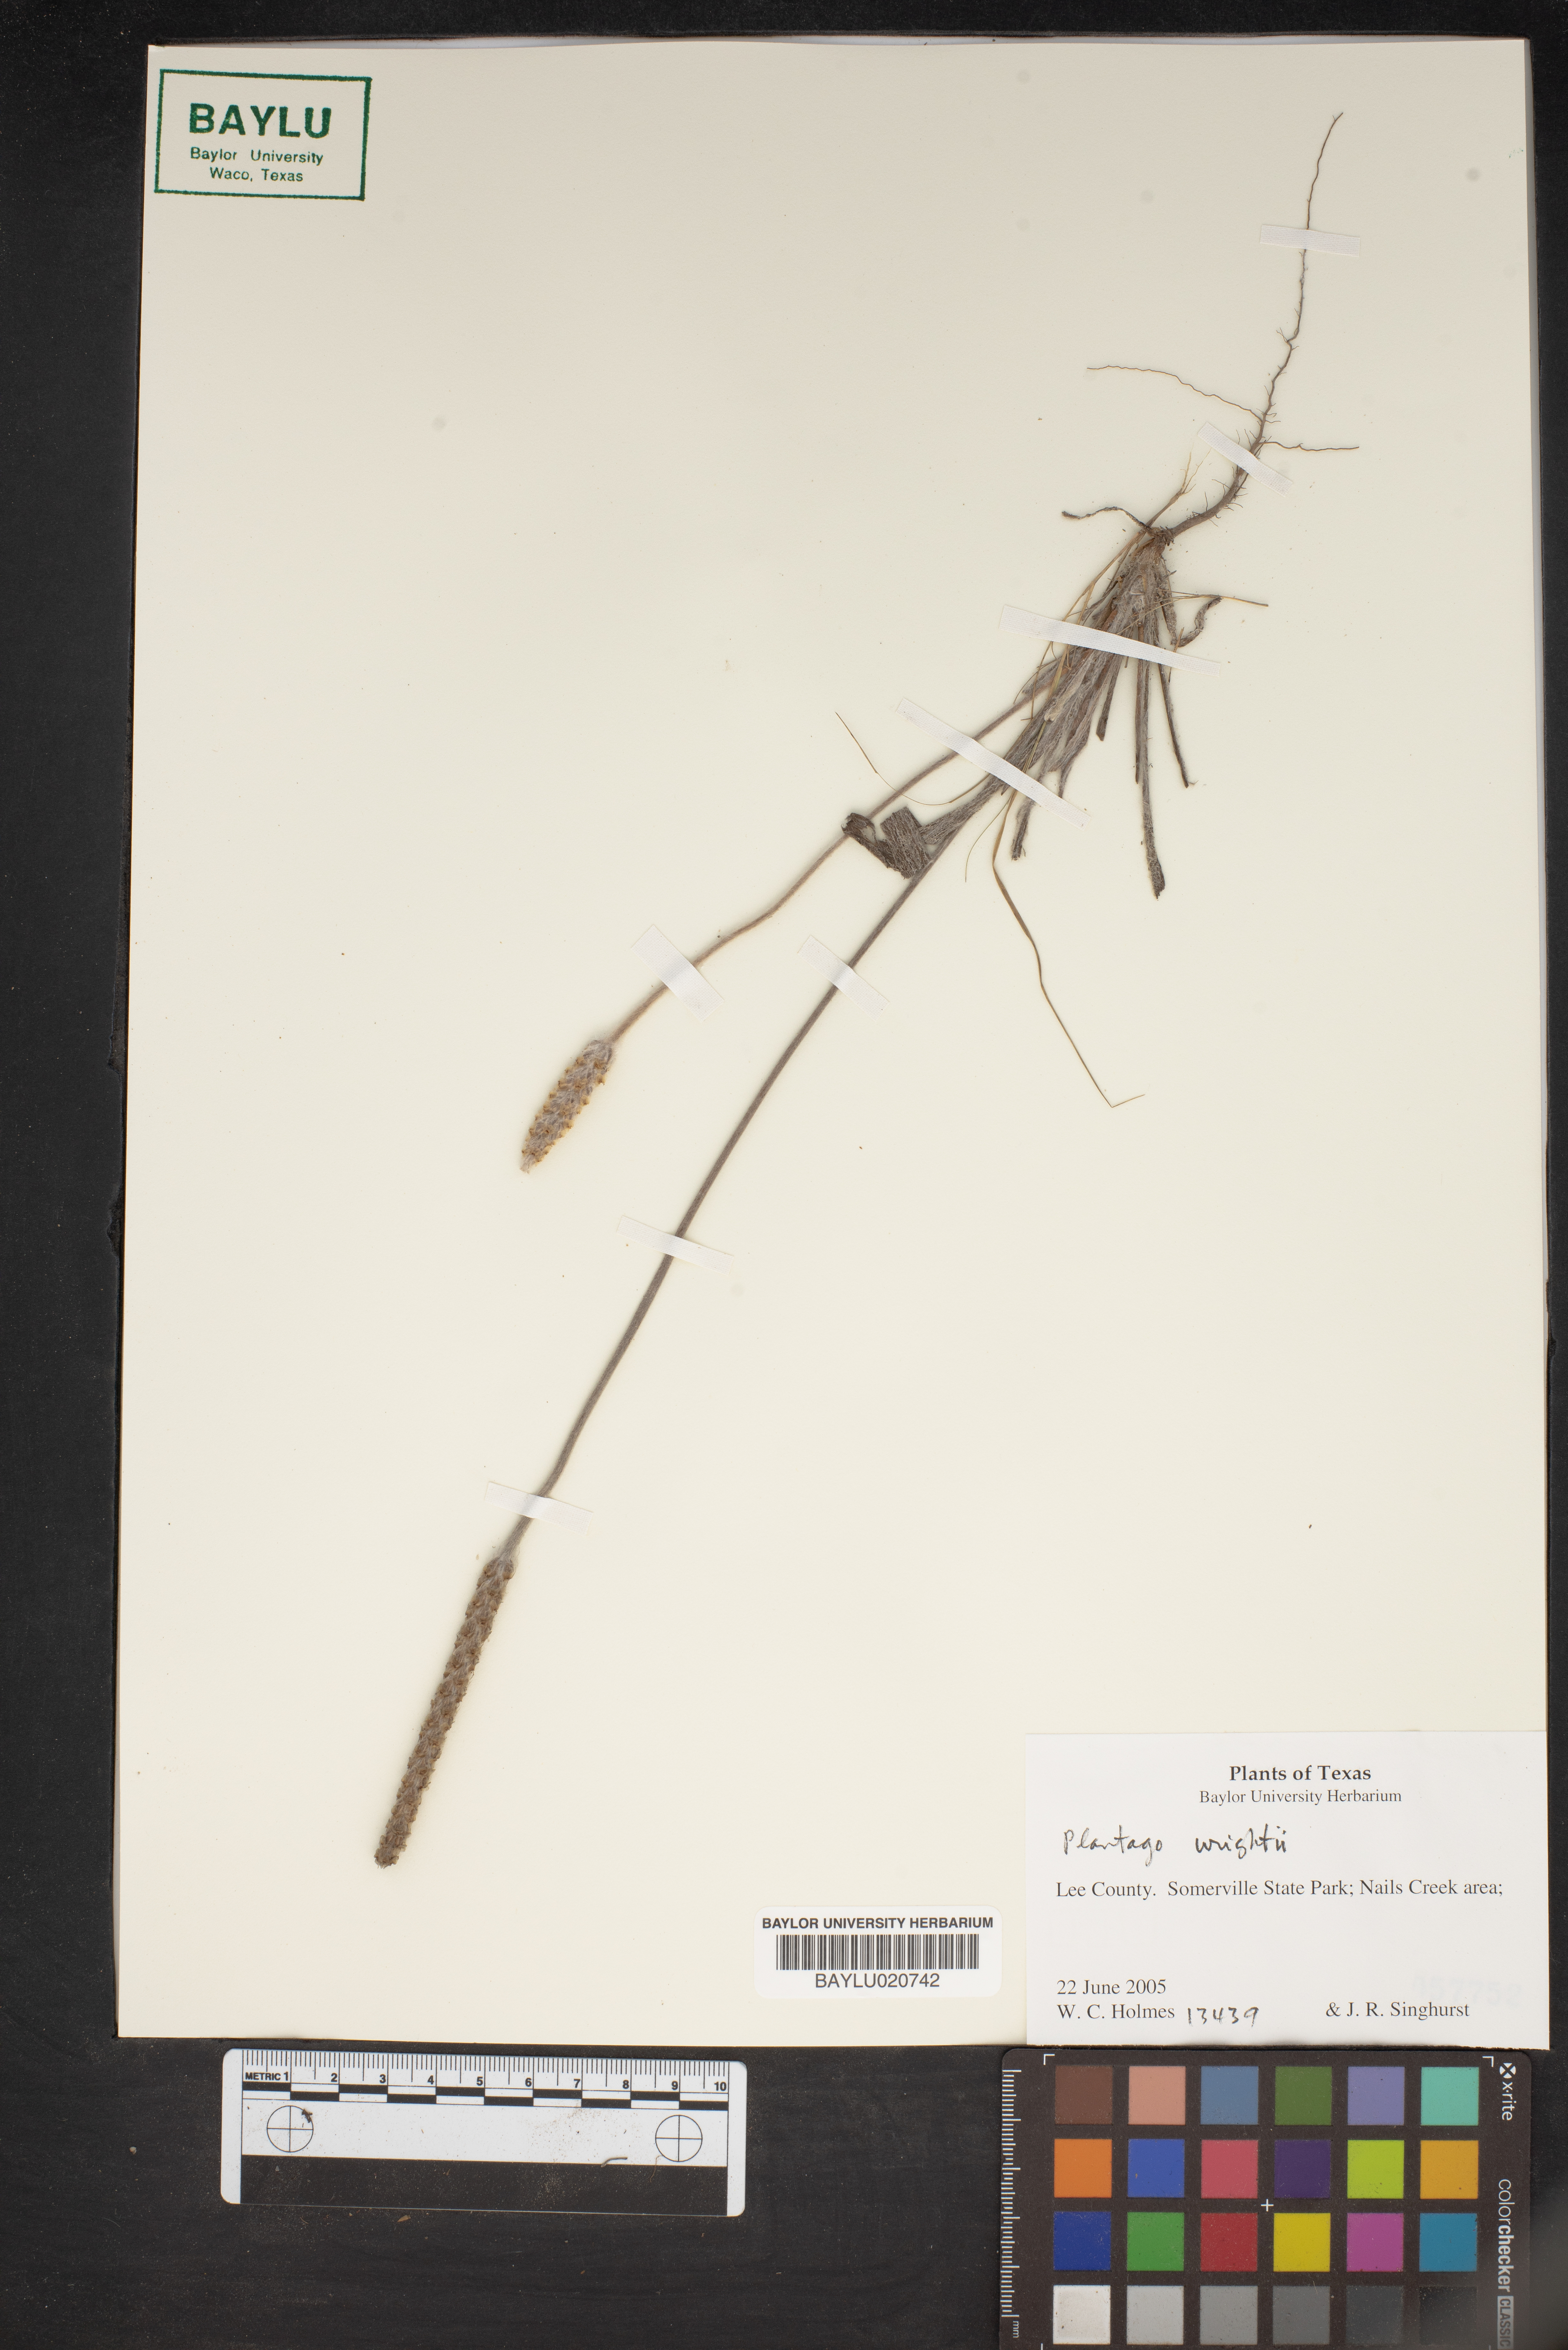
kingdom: Plantae
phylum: Tracheophyta
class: Magnoliopsida
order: Lamiales
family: Plantaginaceae
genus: Plantago
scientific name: Plantago wrightiana
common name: Wright's plantain
